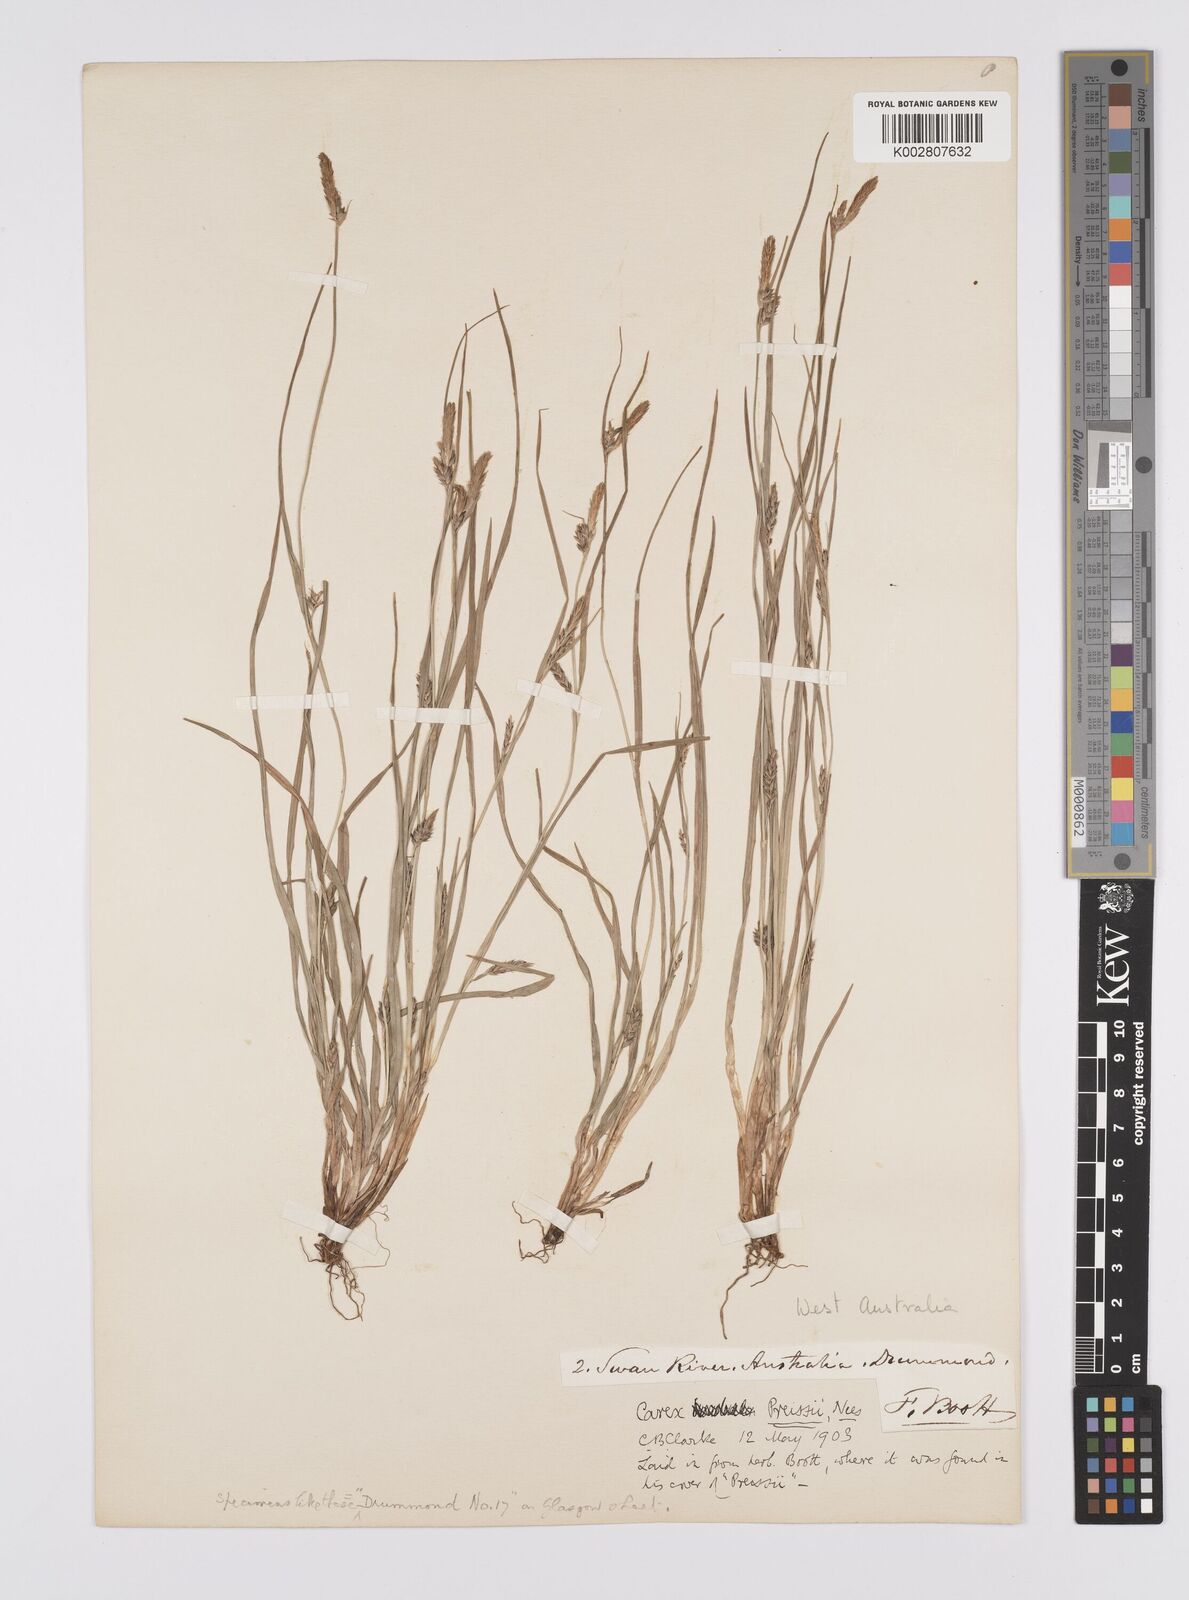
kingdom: Plantae
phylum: Tracheophyta
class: Liliopsida
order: Poales
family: Cyperaceae
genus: Carex
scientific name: Carex preissii
